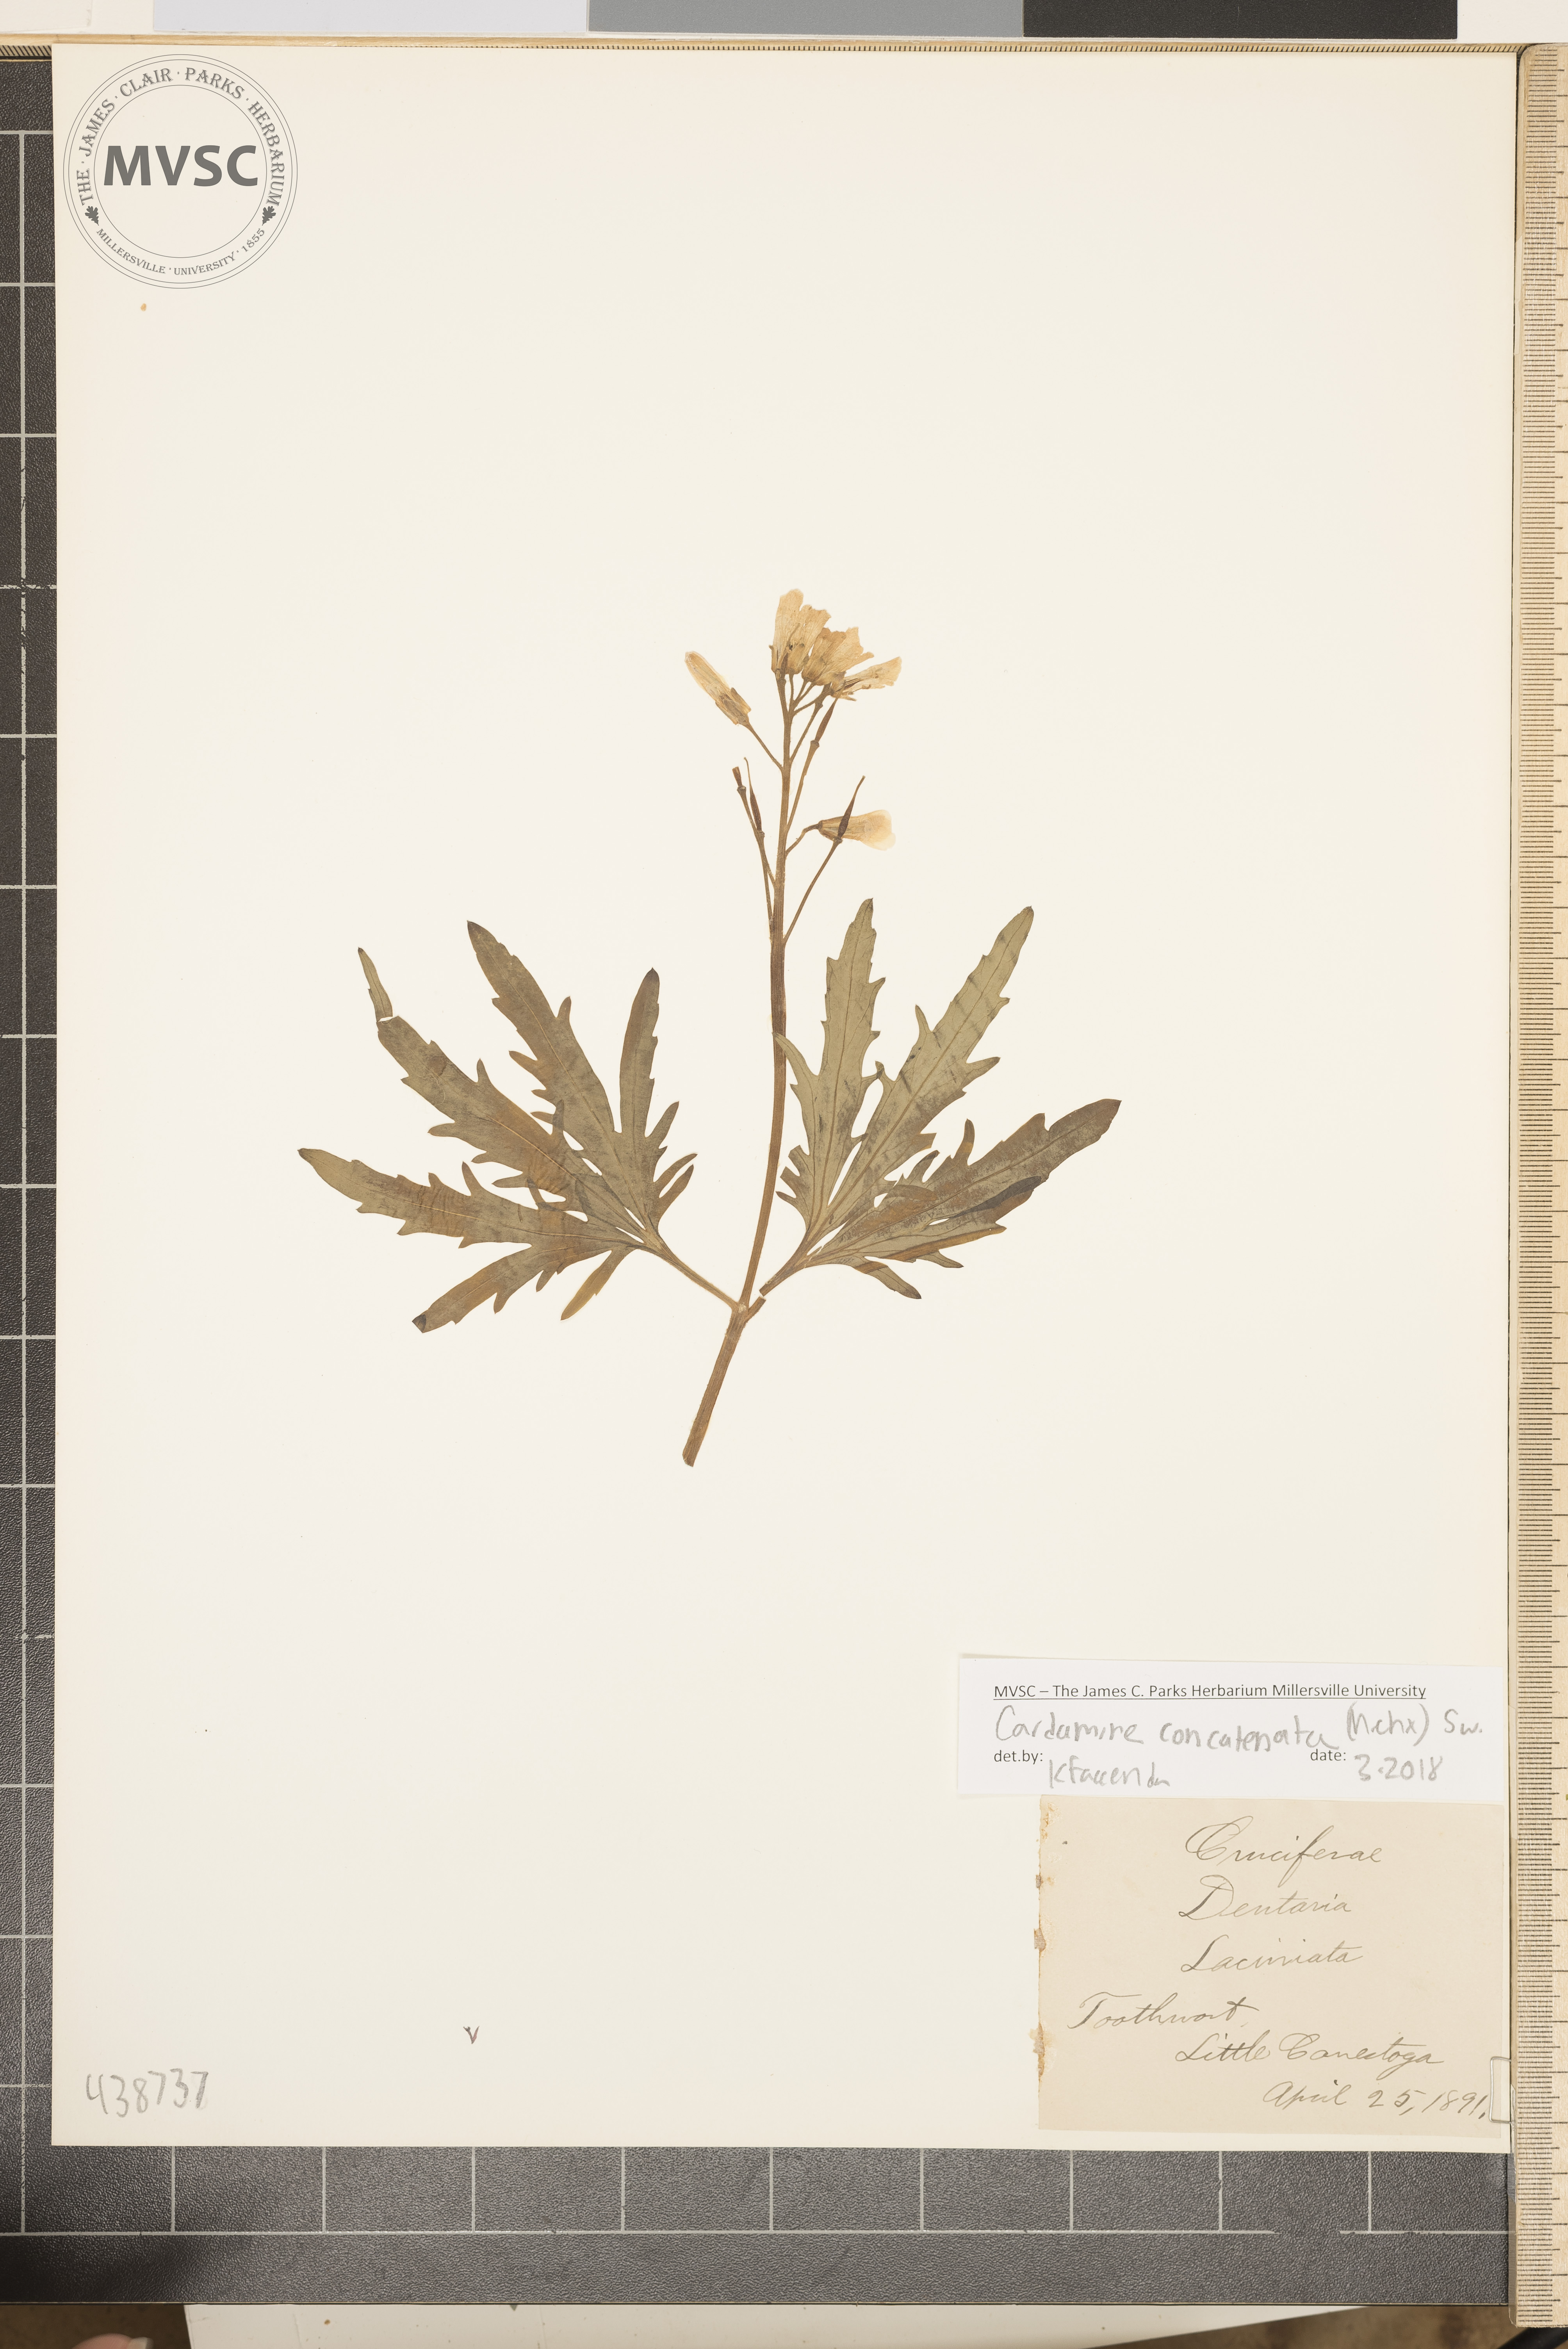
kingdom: Plantae
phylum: Tracheophyta
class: Magnoliopsida
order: Brassicales
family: Brassicaceae
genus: Cardamine
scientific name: Cardamine concatenata
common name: Toothwort
